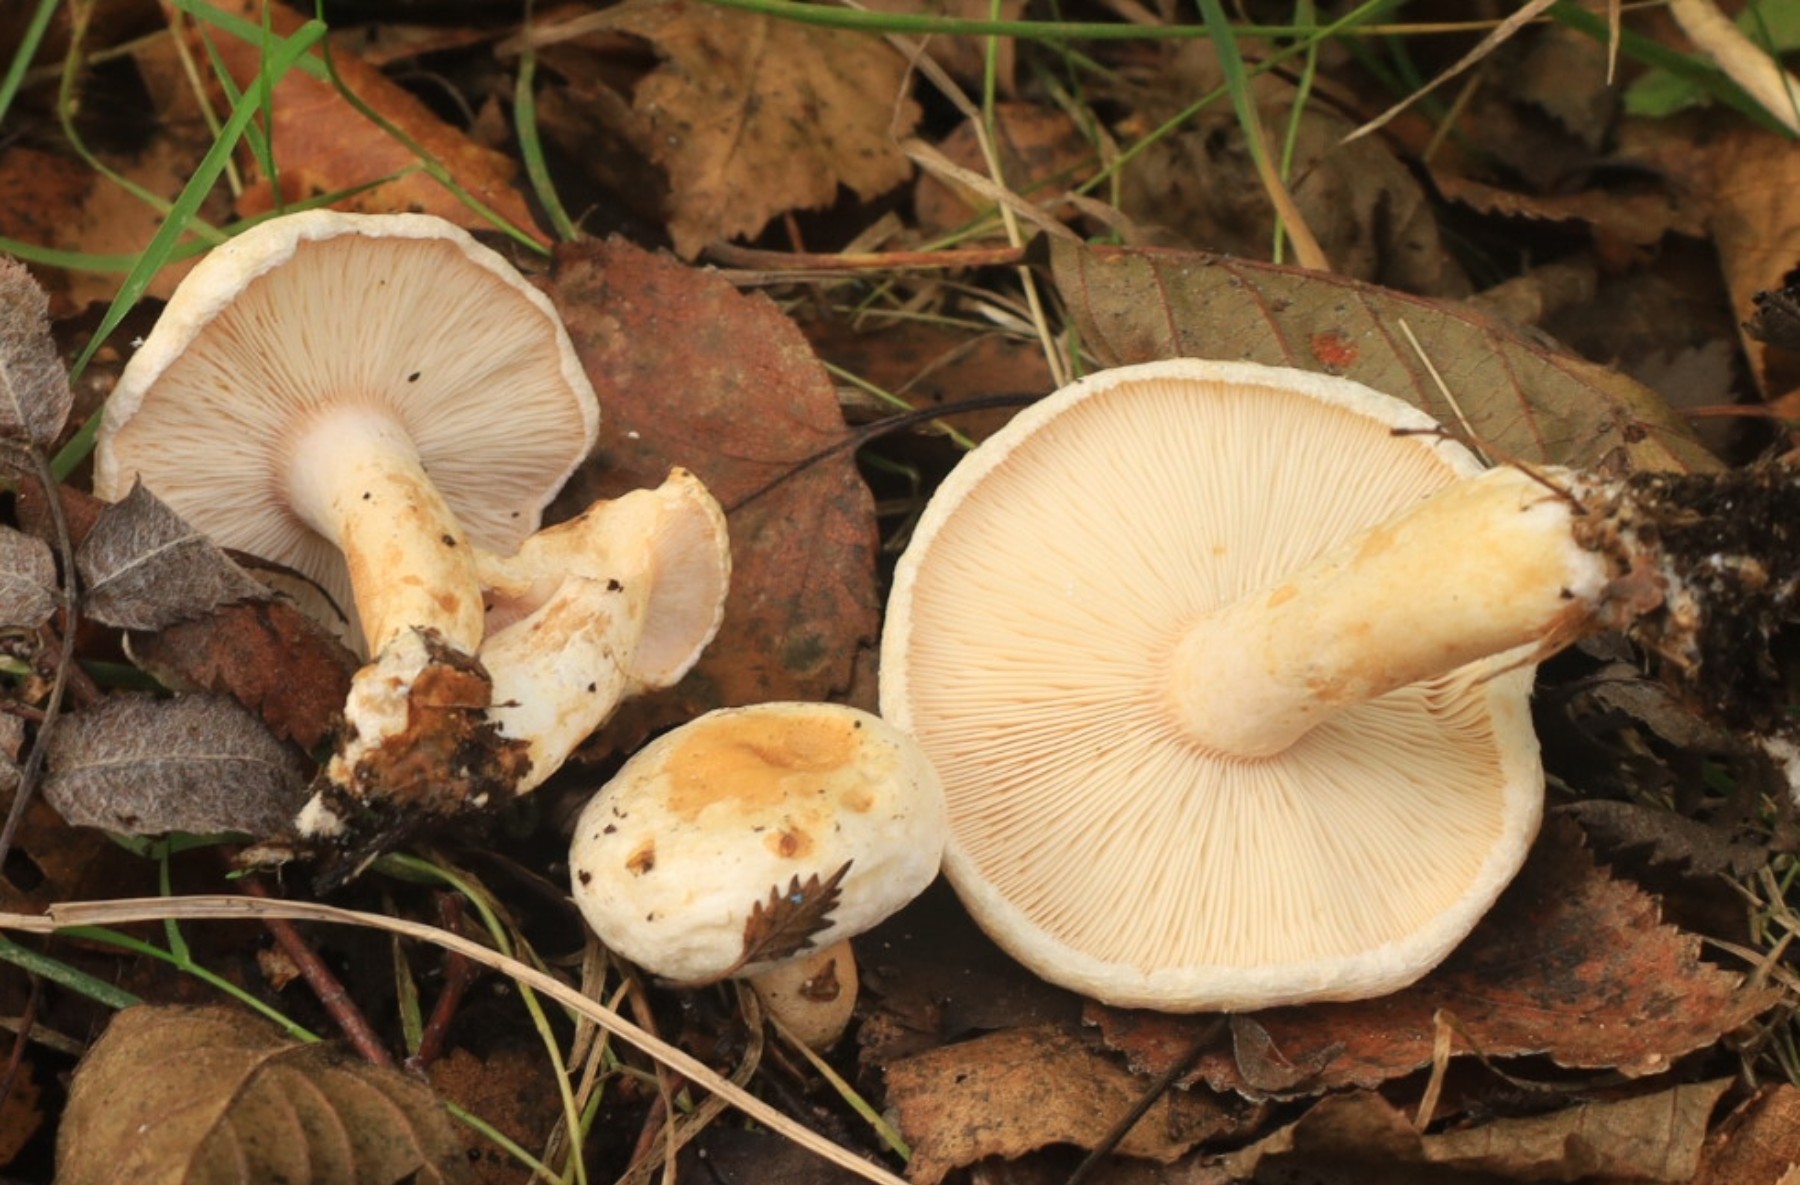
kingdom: Fungi
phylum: Basidiomycota
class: Agaricomycetes
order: Russulales
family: Russulaceae
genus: Lactarius
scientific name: Lactarius scoticus
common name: tørve-mælkehat
